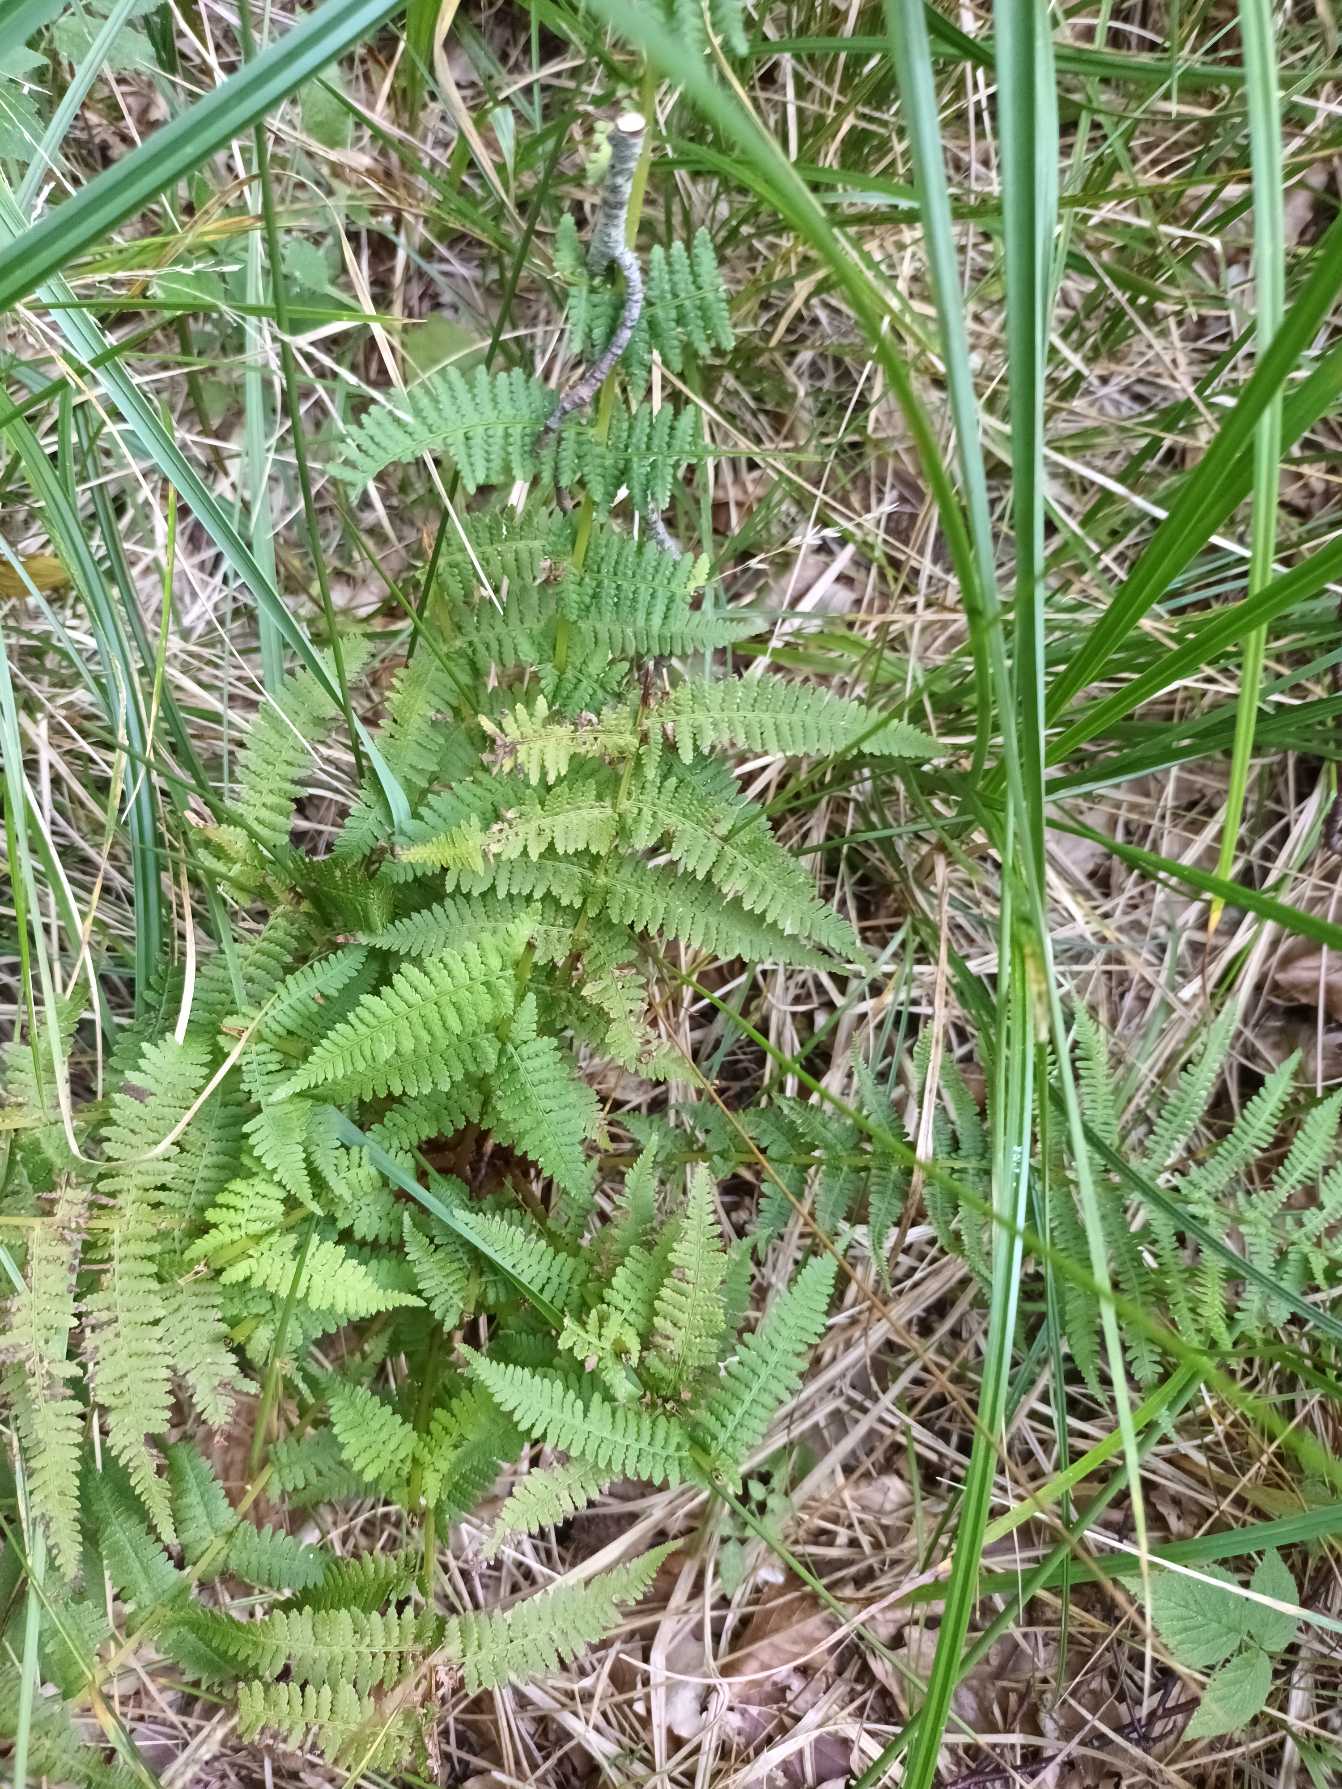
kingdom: Plantae
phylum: Tracheophyta
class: Polypodiopsida
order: Polypodiales
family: Athyriaceae
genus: Athyrium
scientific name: Athyrium filix-femina
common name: Fjerbregne
